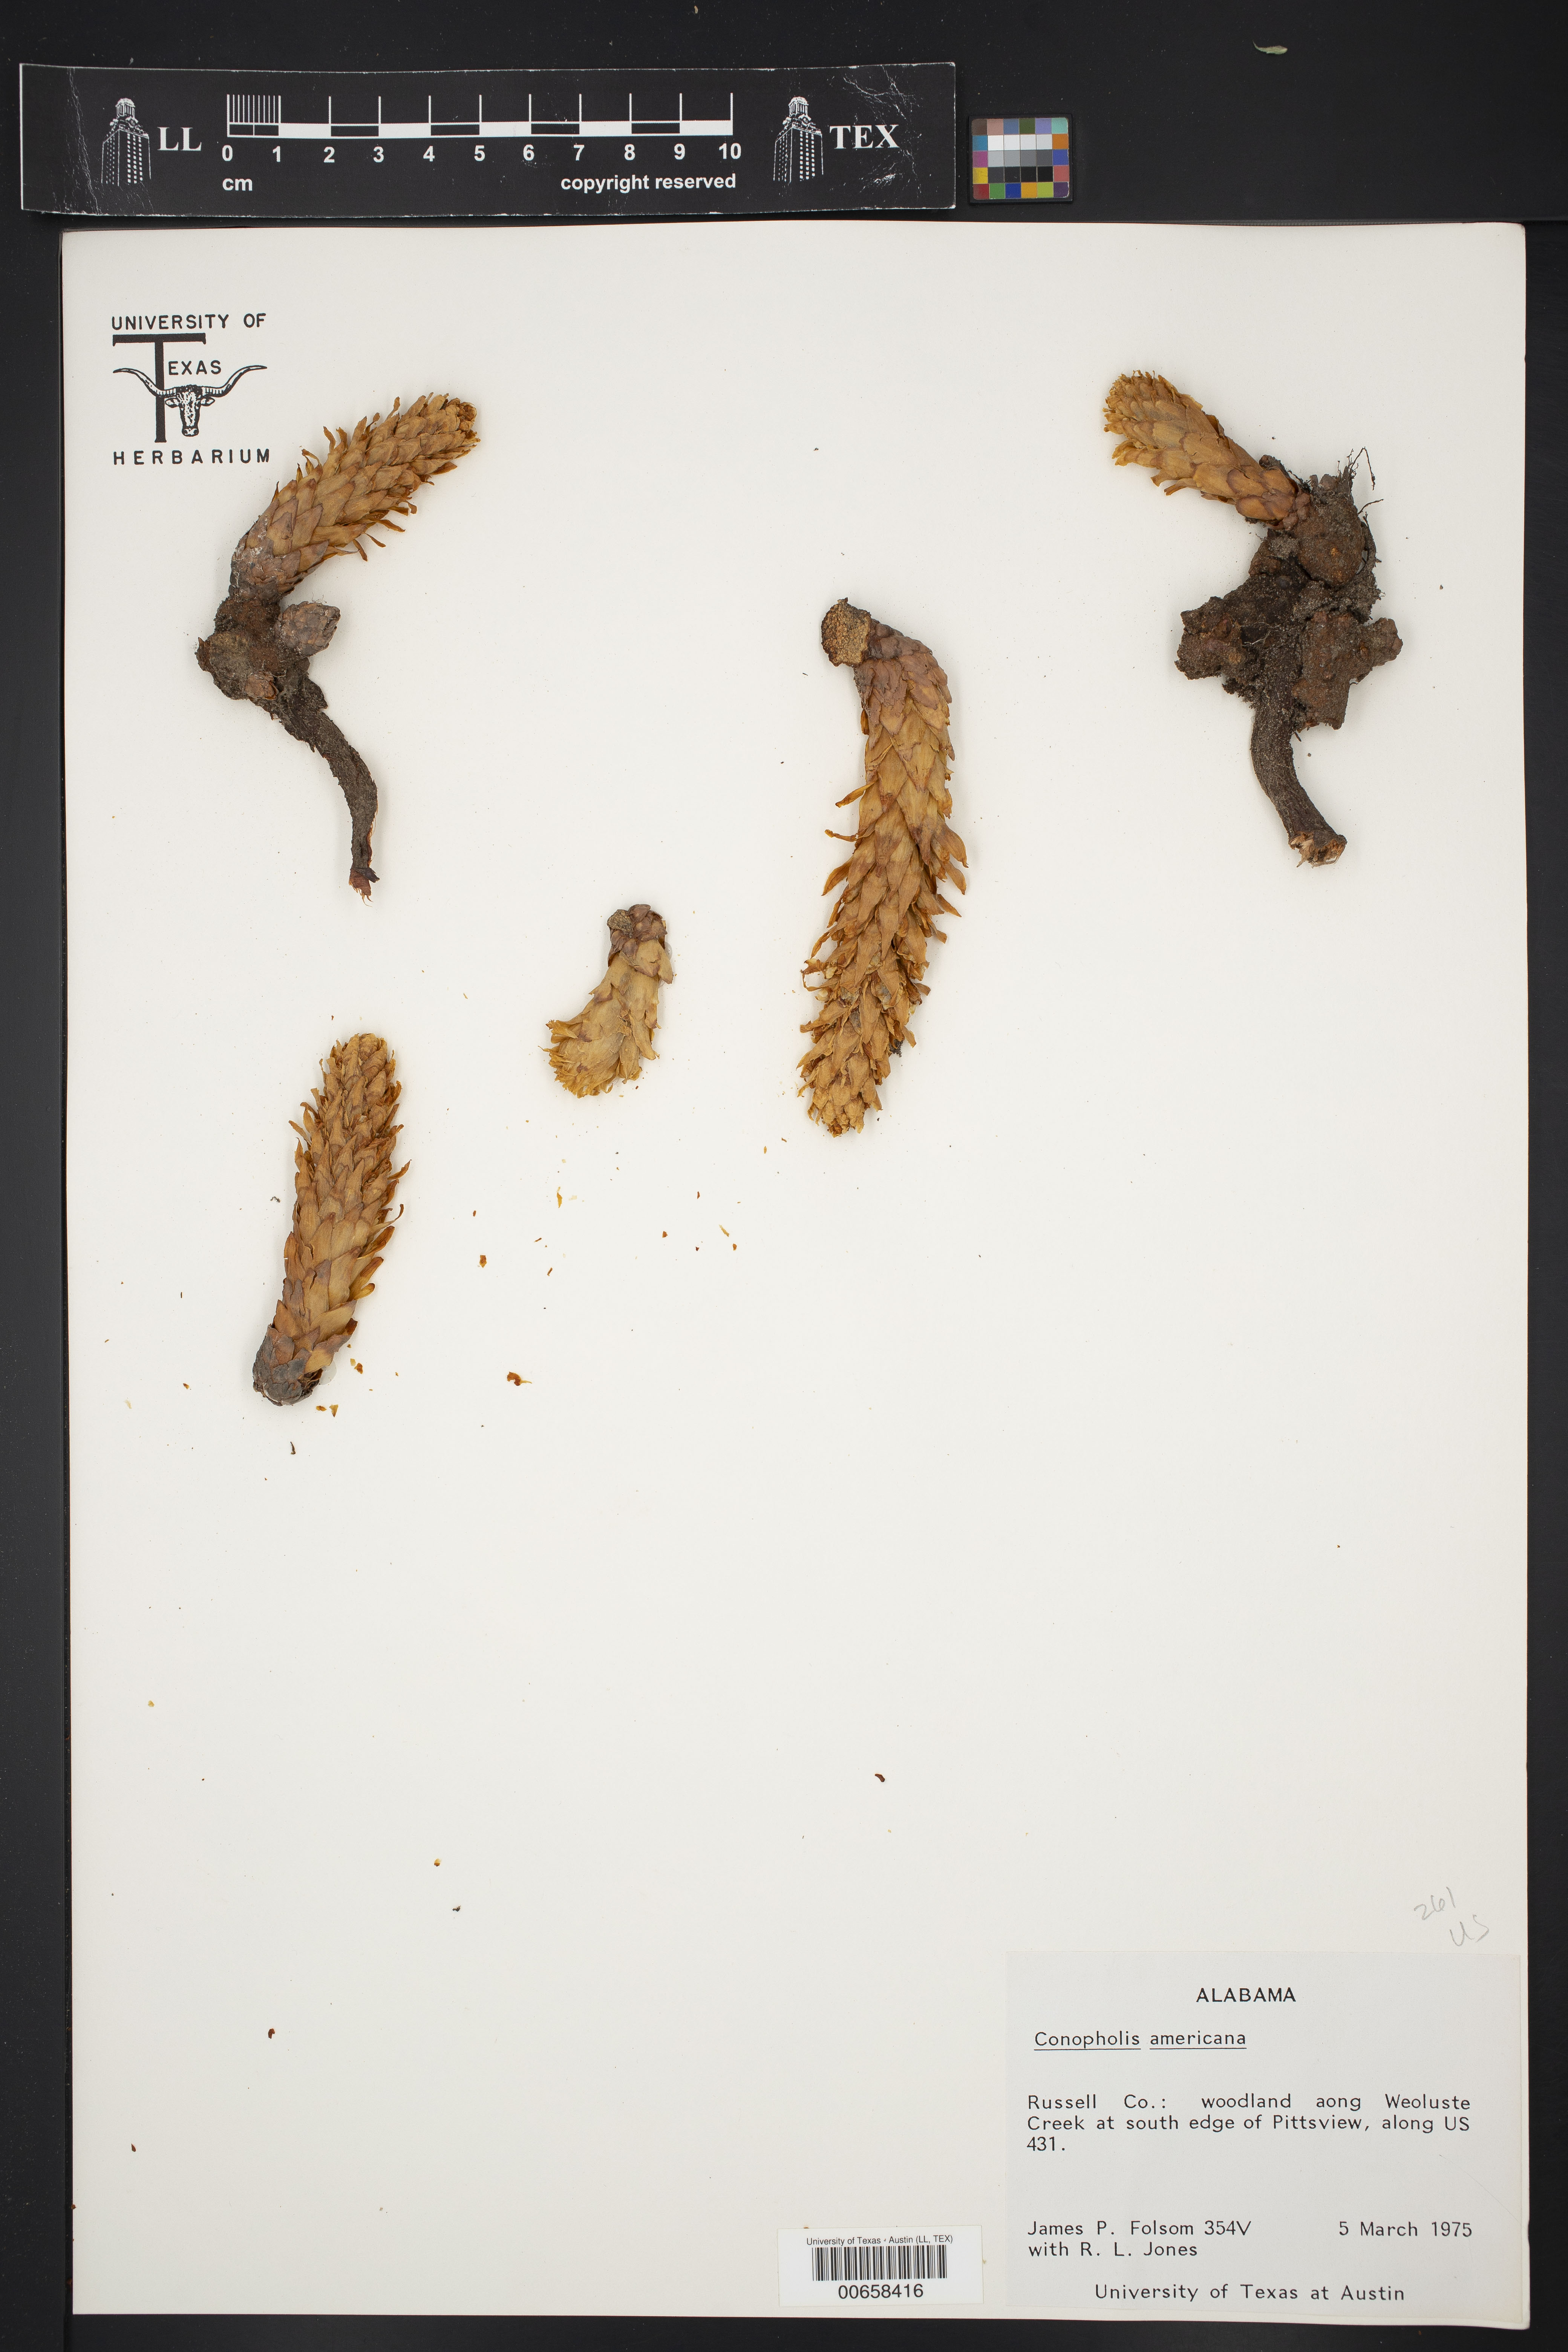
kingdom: Plantae
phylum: Tracheophyta
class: Magnoliopsida
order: Lamiales
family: Orobanchaceae
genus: Conopholis
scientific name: Conopholis americana
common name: American cancer-root
